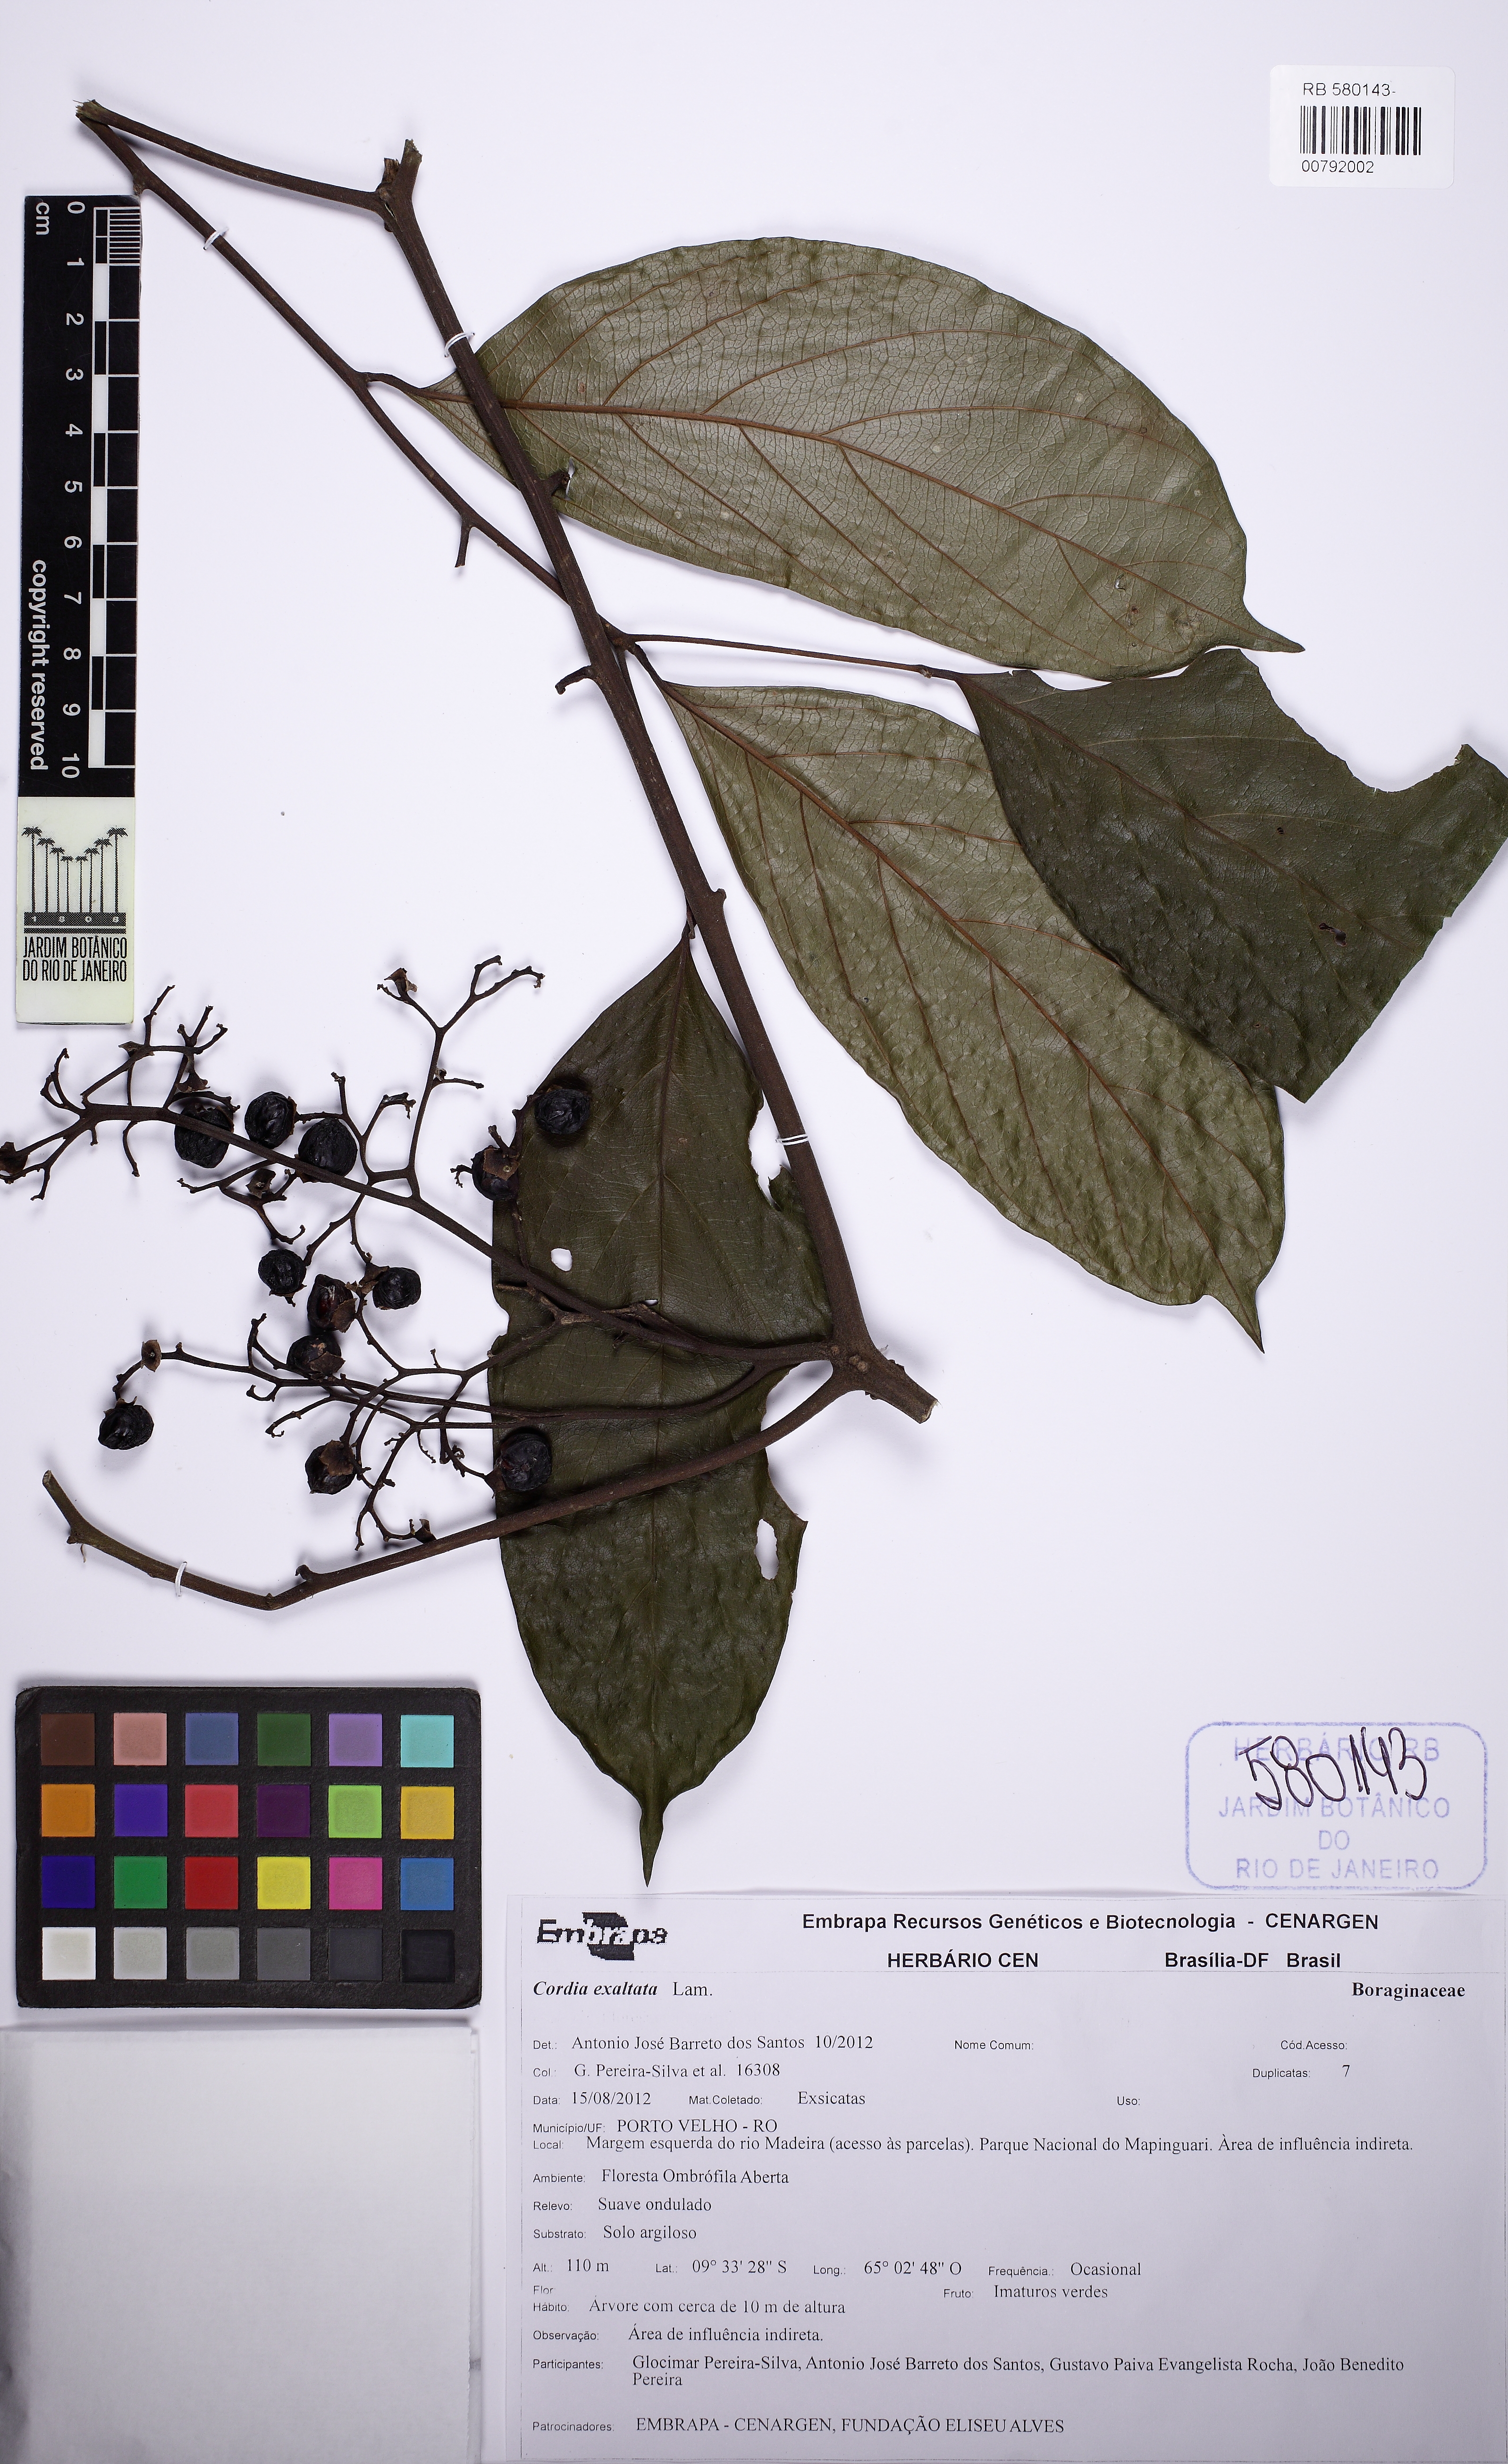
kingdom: Plantae
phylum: Tracheophyta
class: Magnoliopsida
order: Boraginales
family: Cordiaceae
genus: Cordia
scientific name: Cordia exaltata
